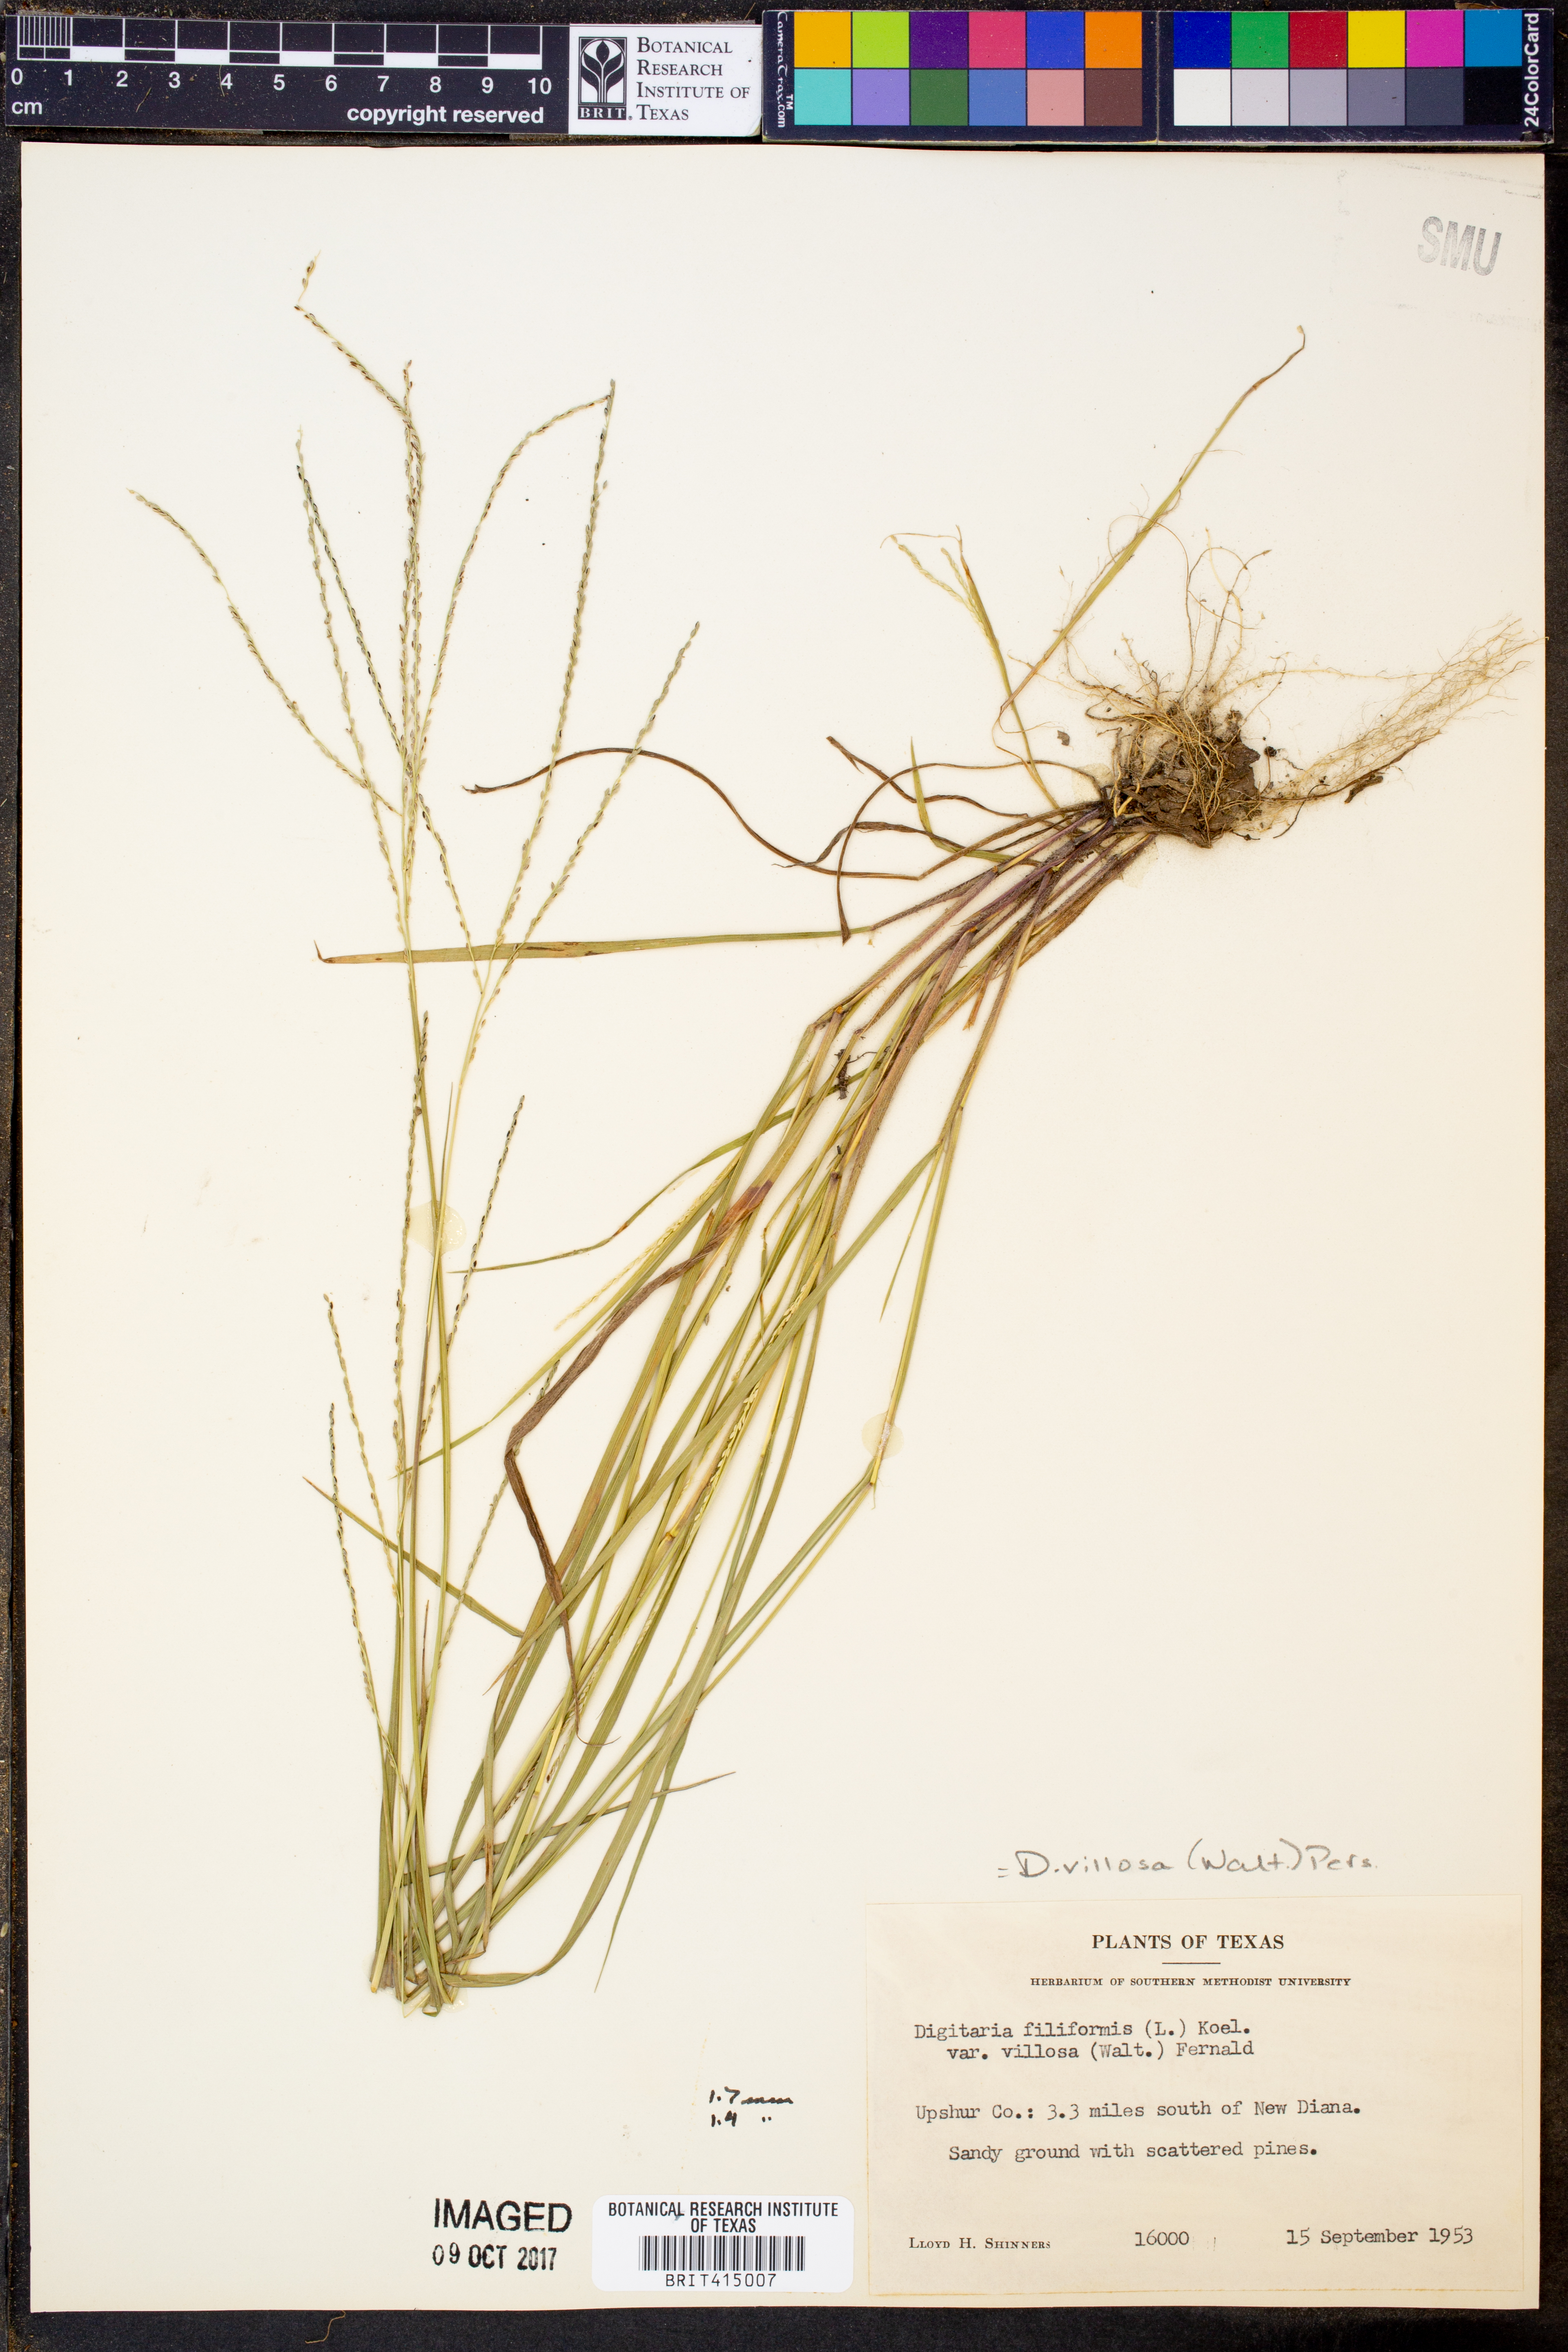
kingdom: Plantae
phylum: Tracheophyta
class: Liliopsida
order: Poales
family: Poaceae
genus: Digitaria
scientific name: Digitaria villosa
